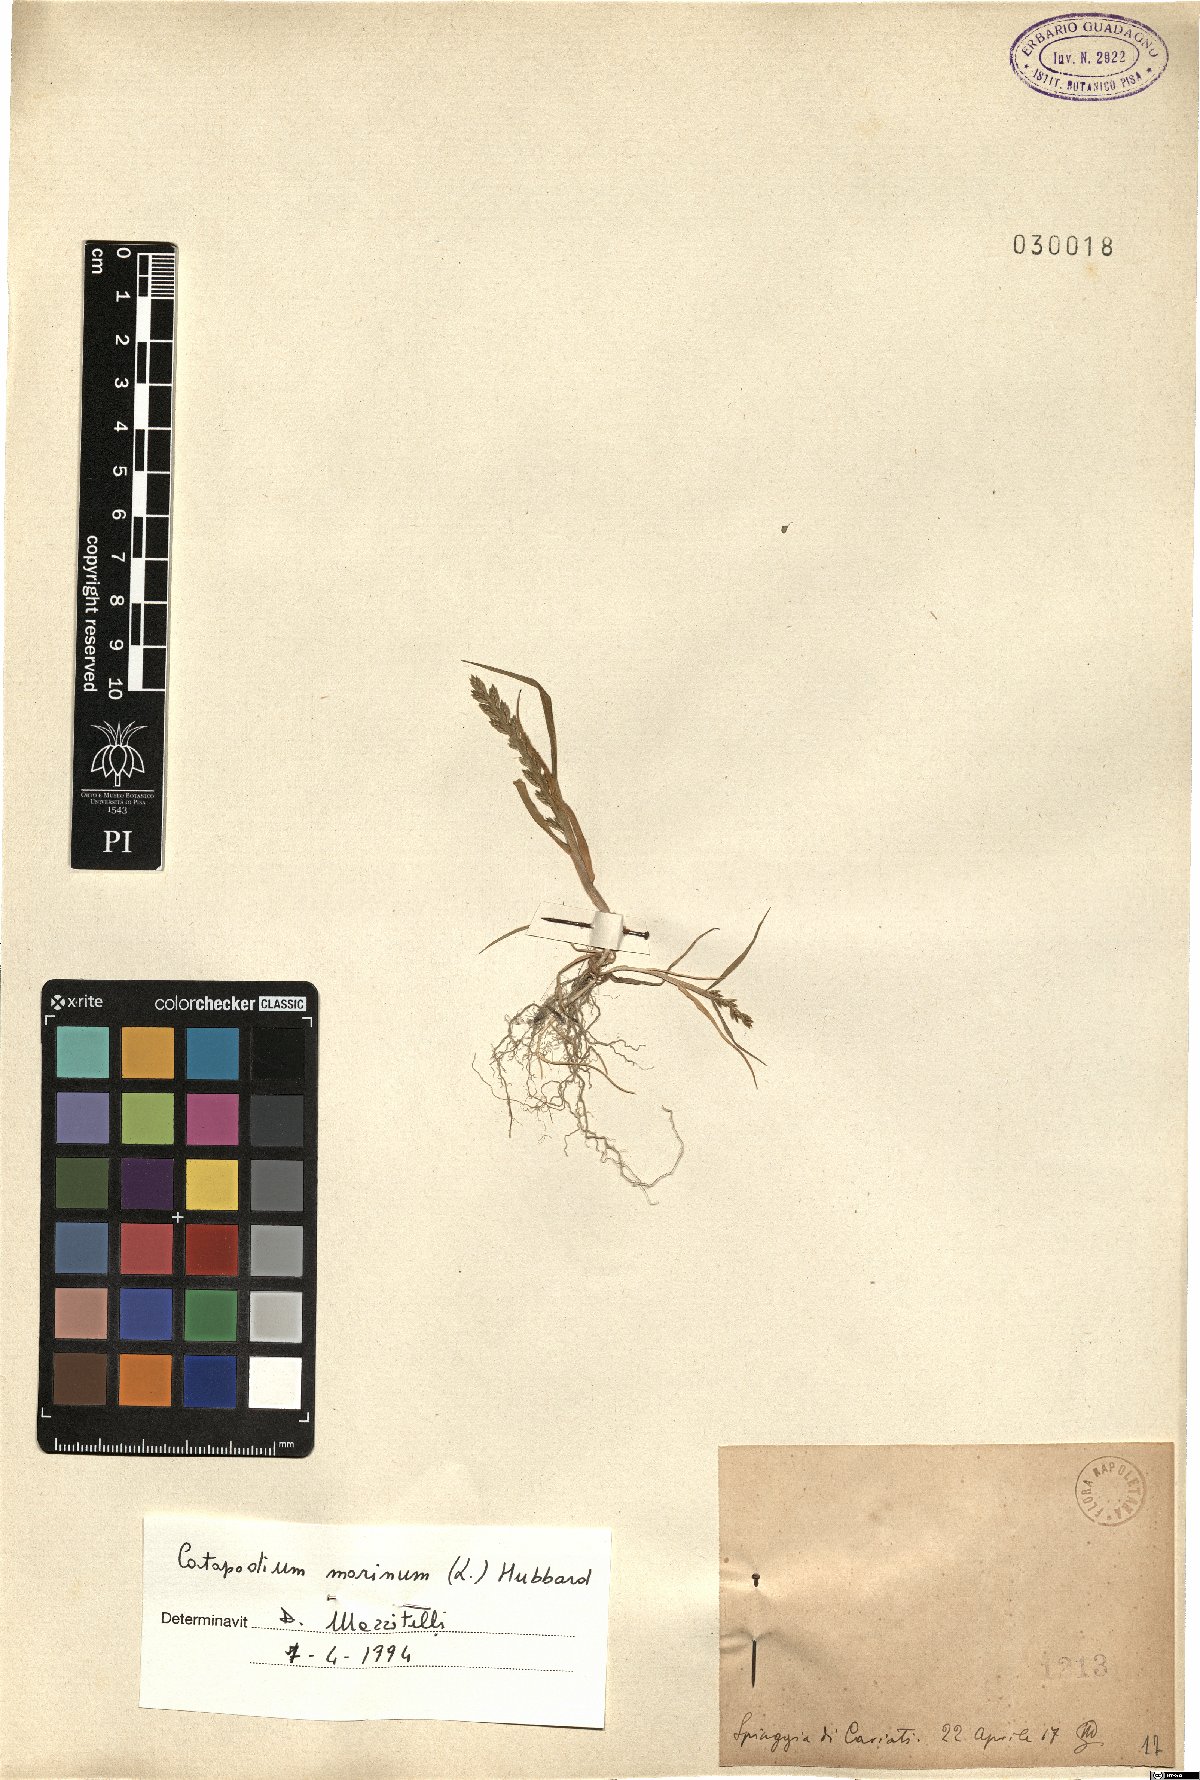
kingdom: Plantae
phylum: Tracheophyta
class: Liliopsida
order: Poales
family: Poaceae
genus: Catapodium
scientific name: Catapodium marinum
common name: Sea fern-grass
